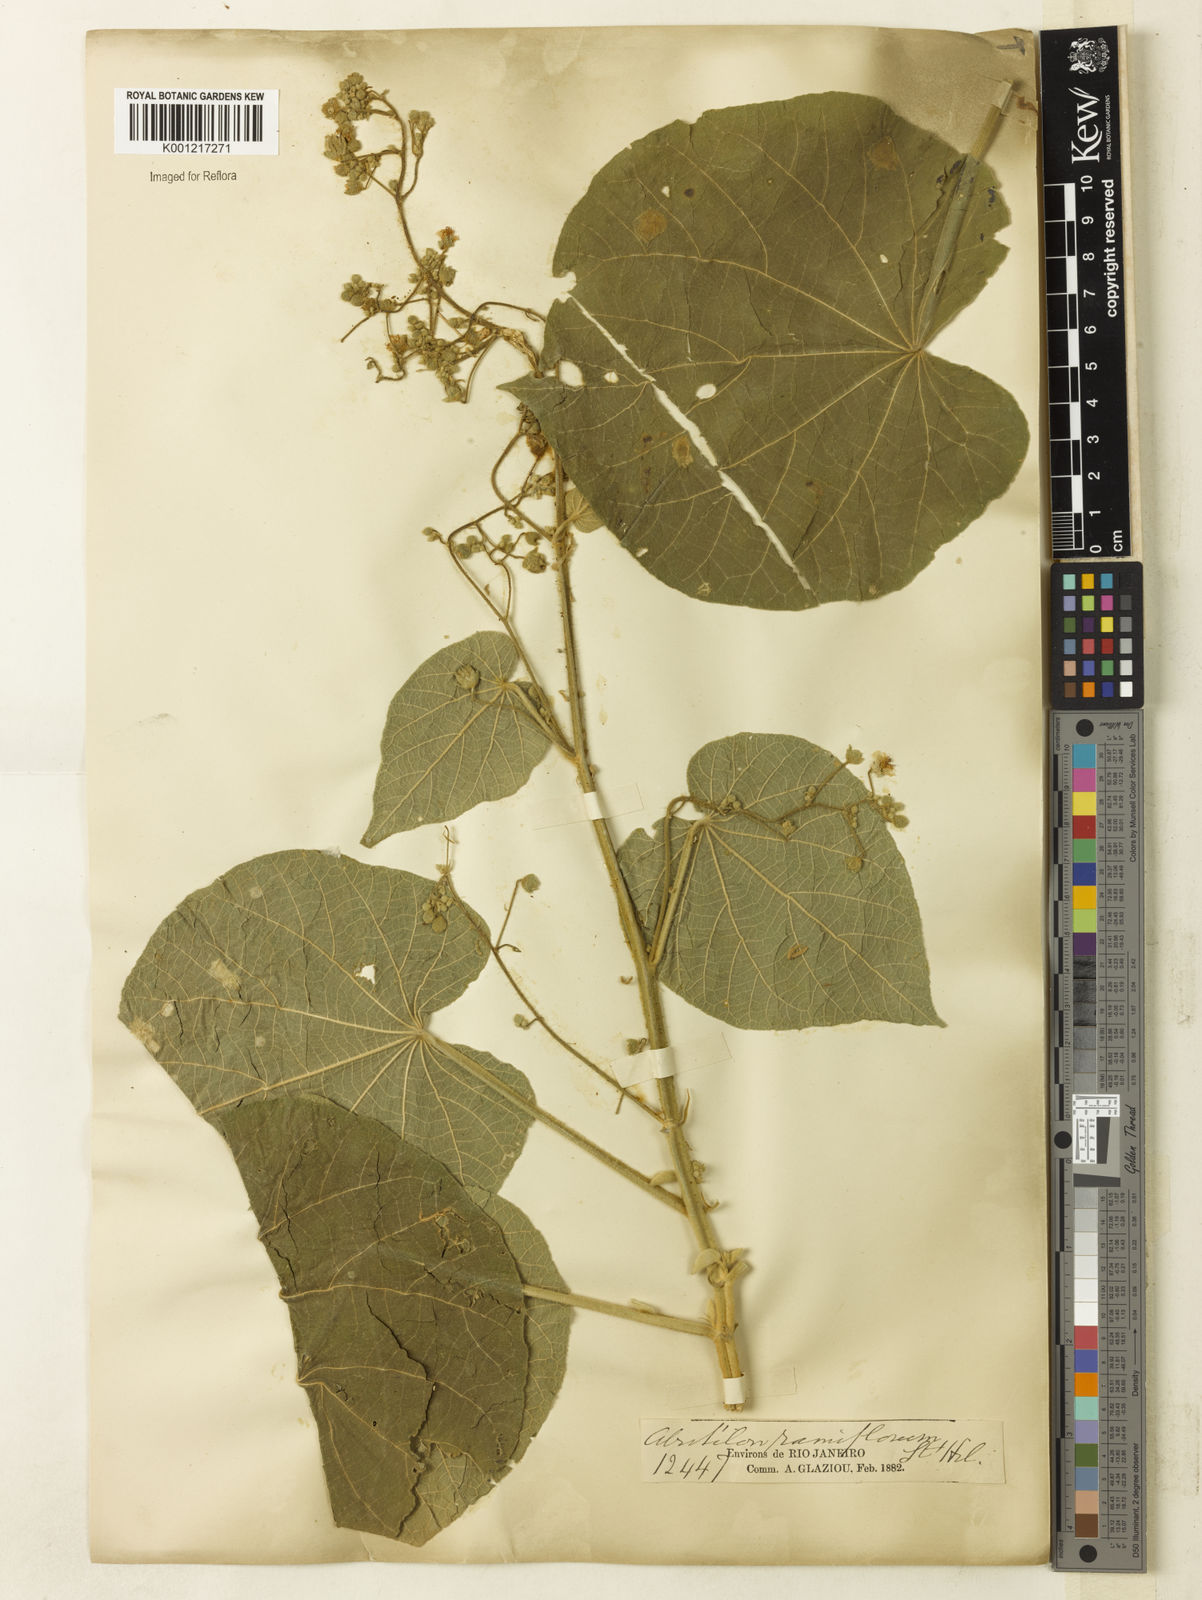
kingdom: Plantae
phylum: Tracheophyta
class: Magnoliopsida
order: Malvales
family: Malvaceae
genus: Abutilon
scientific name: Abutilon ramiflorum
